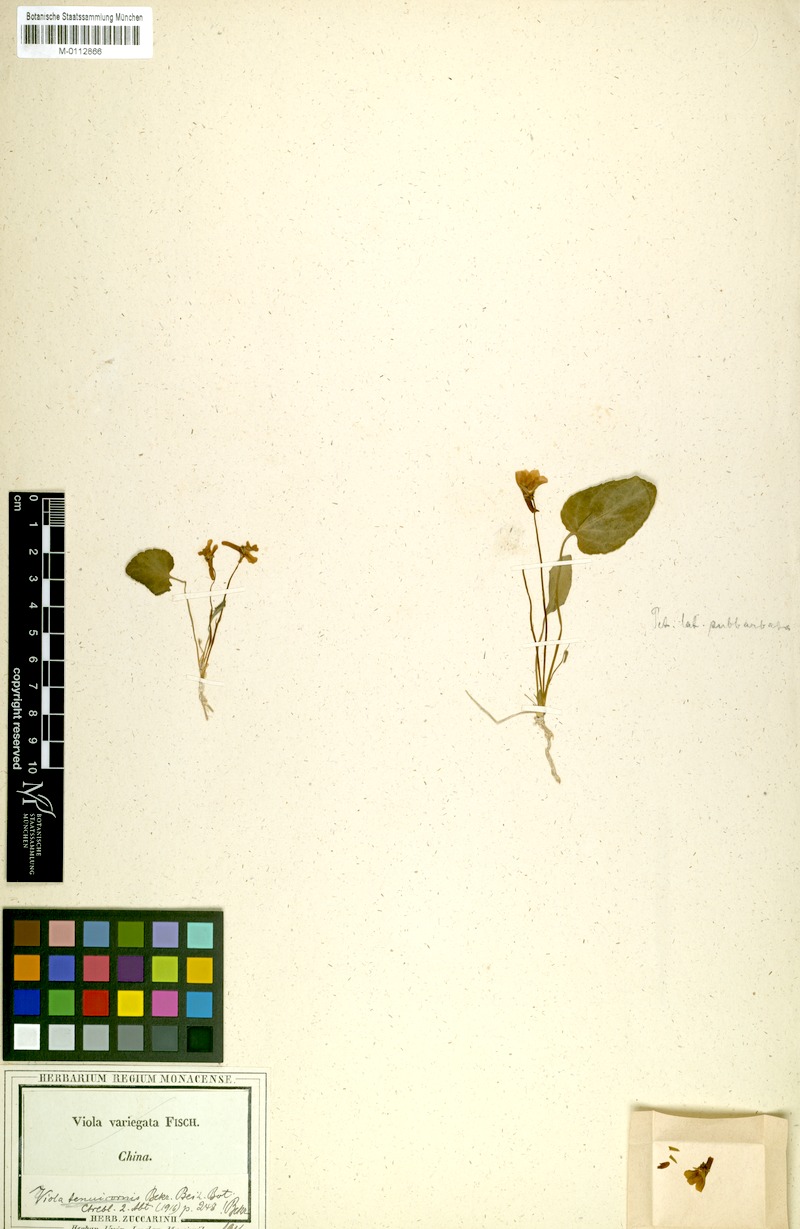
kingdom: Plantae
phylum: Tracheophyta
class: Magnoliopsida
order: Malpighiales
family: Violaceae
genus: Viola
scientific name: Viola tenuicornis
